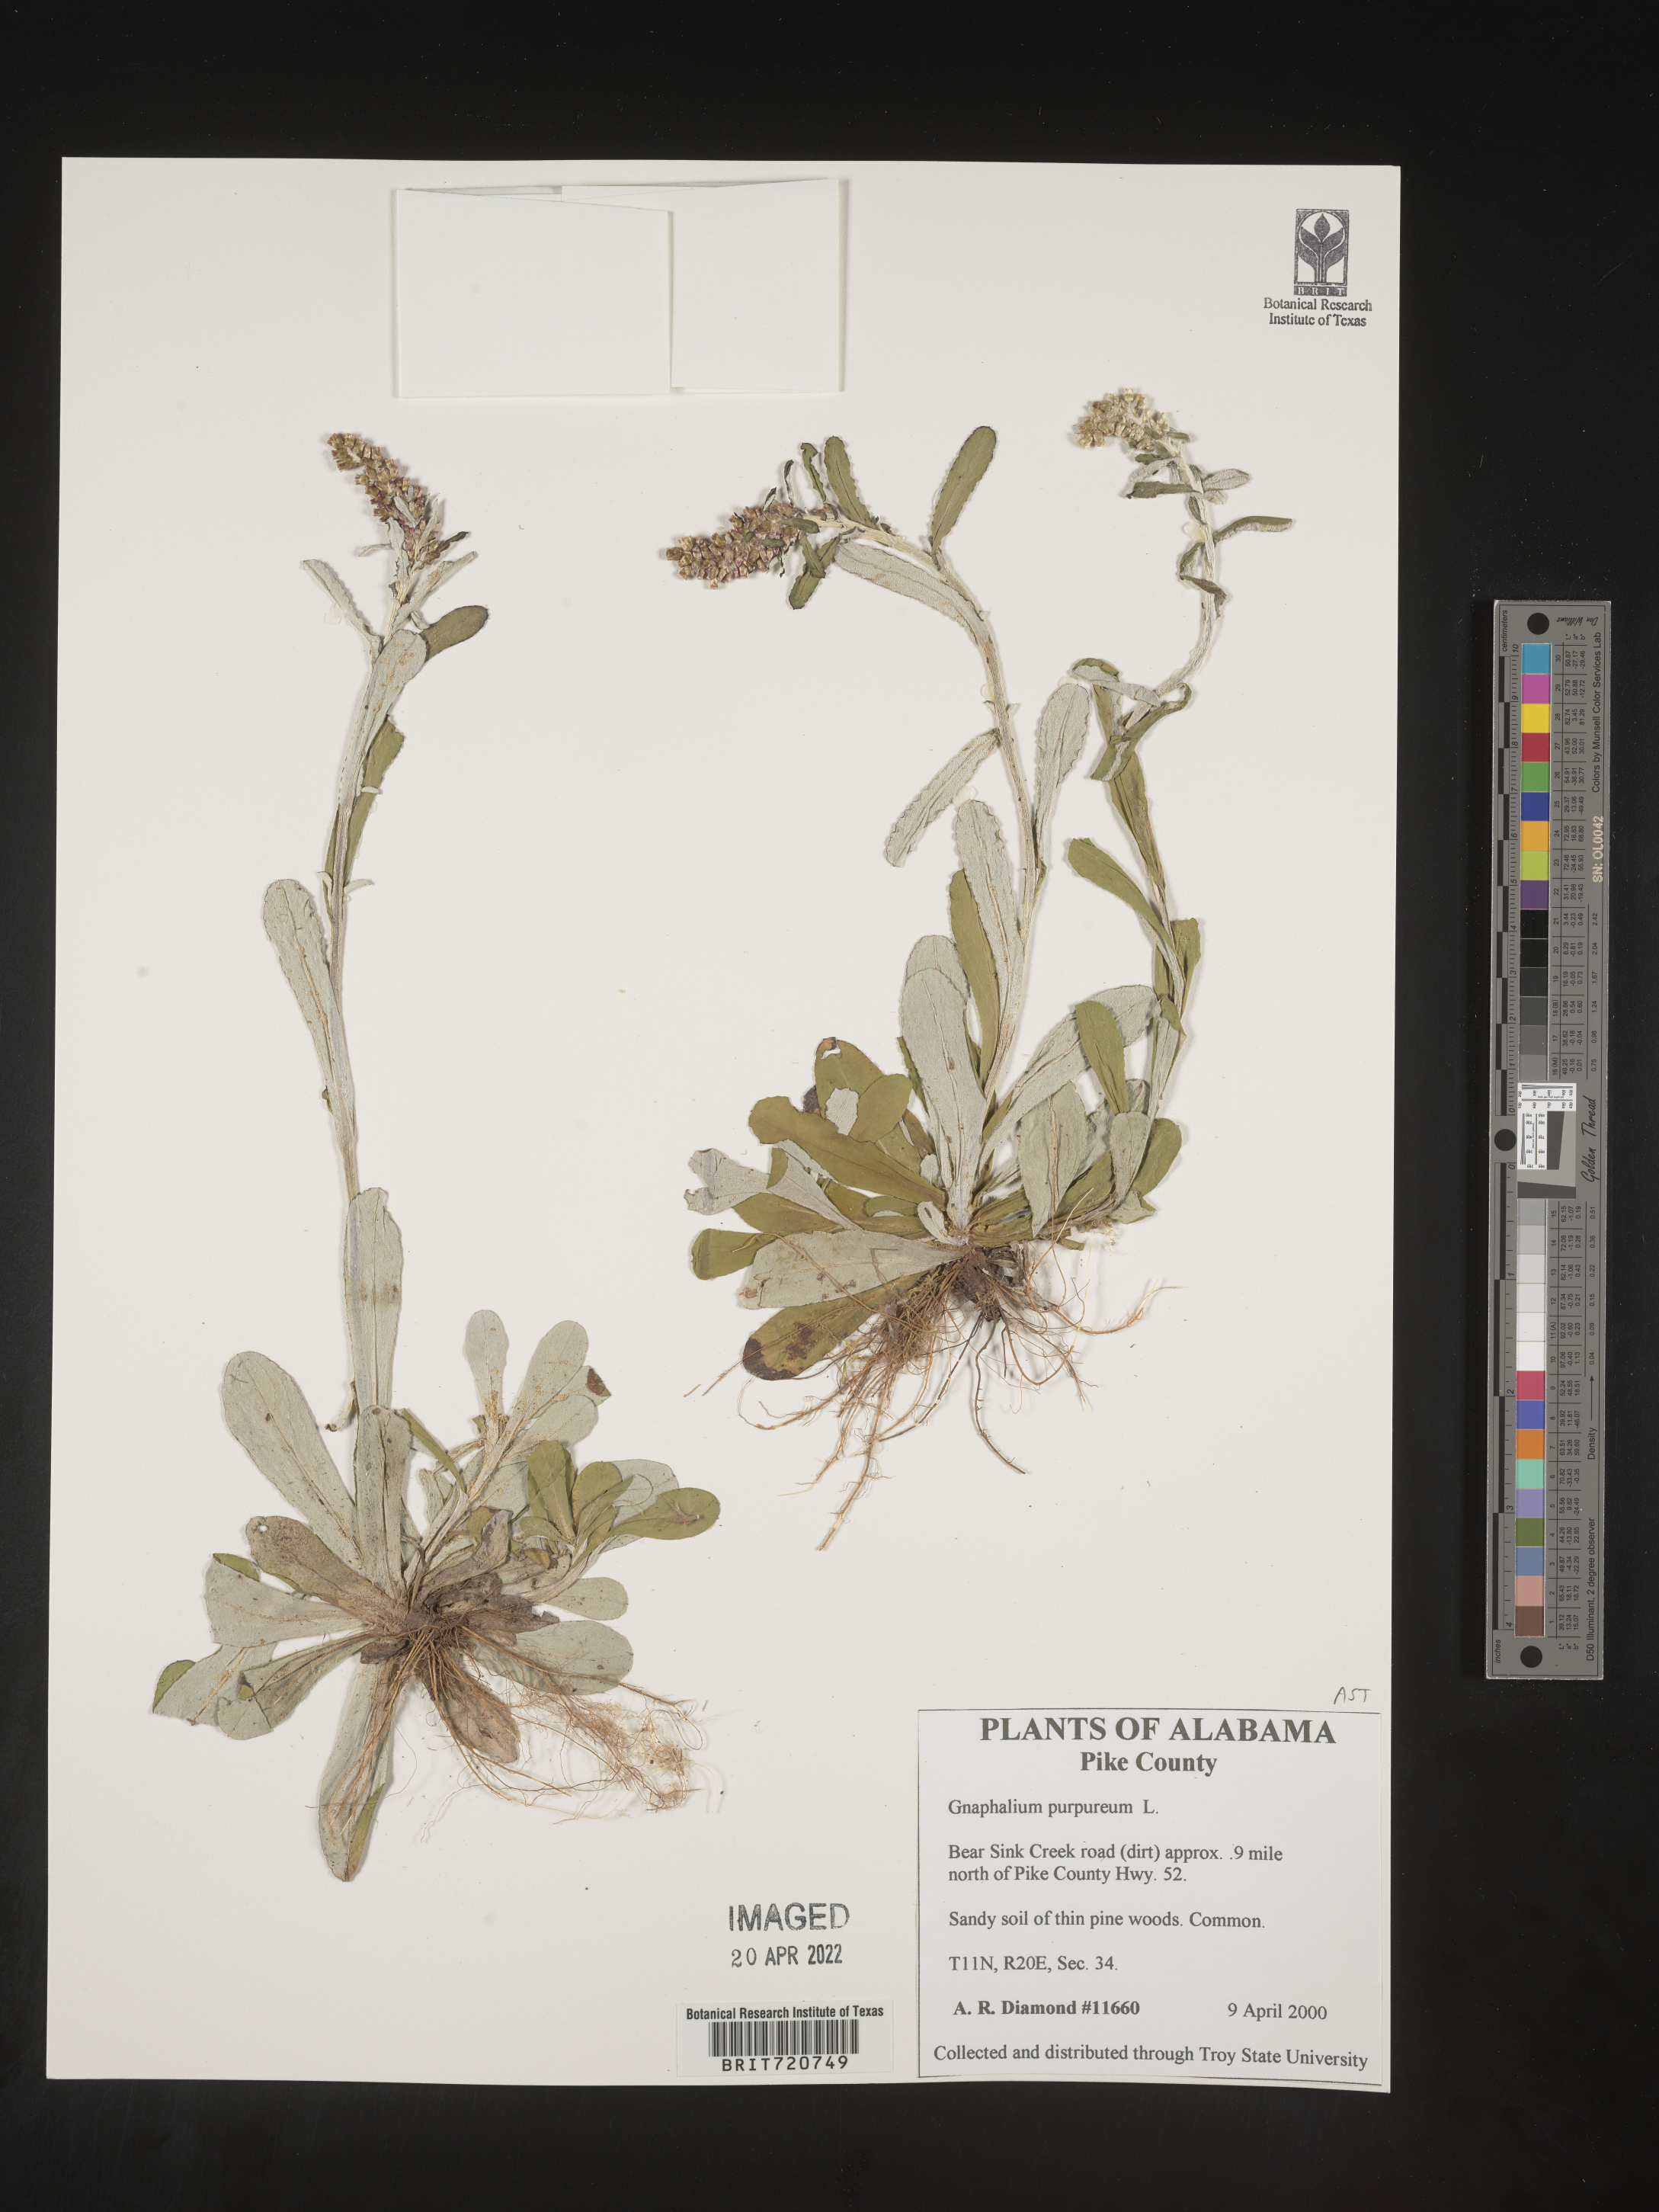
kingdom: Plantae
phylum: Tracheophyta
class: Magnoliopsida
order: Asterales
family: Asteraceae
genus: Gnaphalium
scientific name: Gnaphalium
